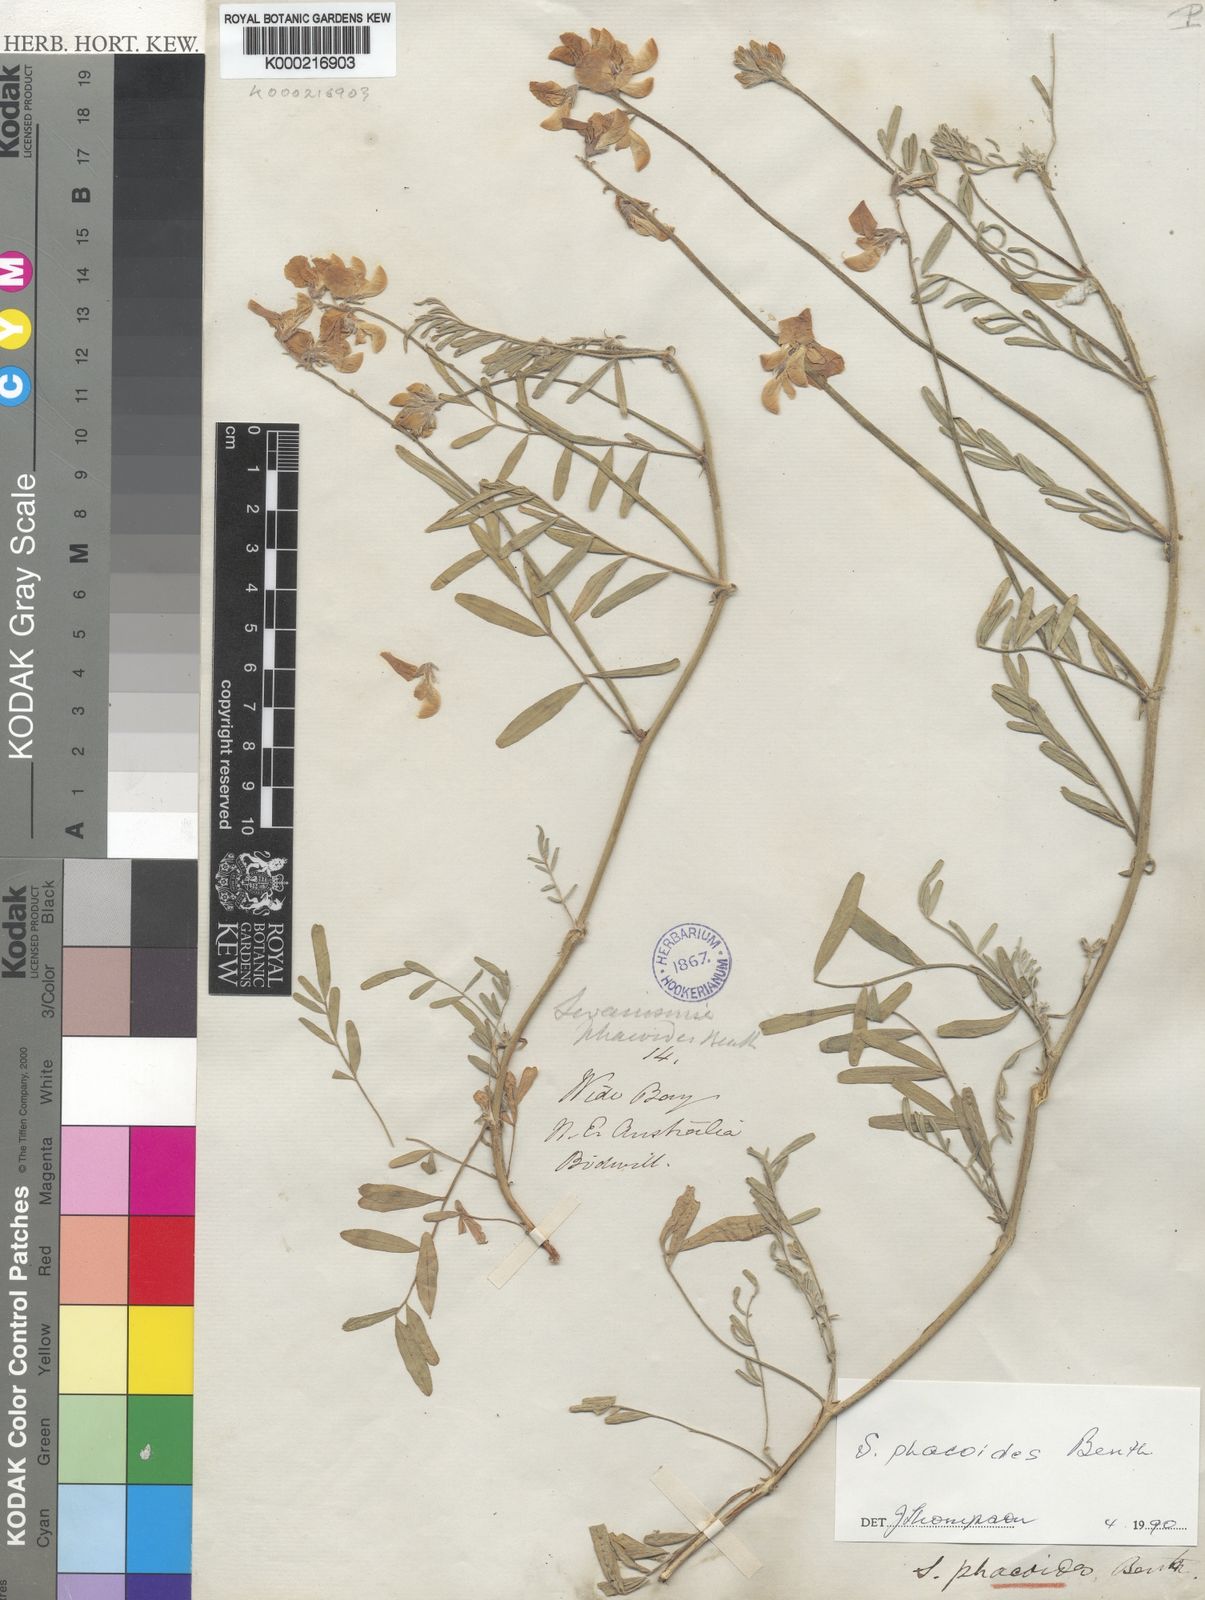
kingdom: Plantae
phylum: Tracheophyta
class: Magnoliopsida
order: Fabales
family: Fabaceae
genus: Swainsona
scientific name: Swainsona phacoides
